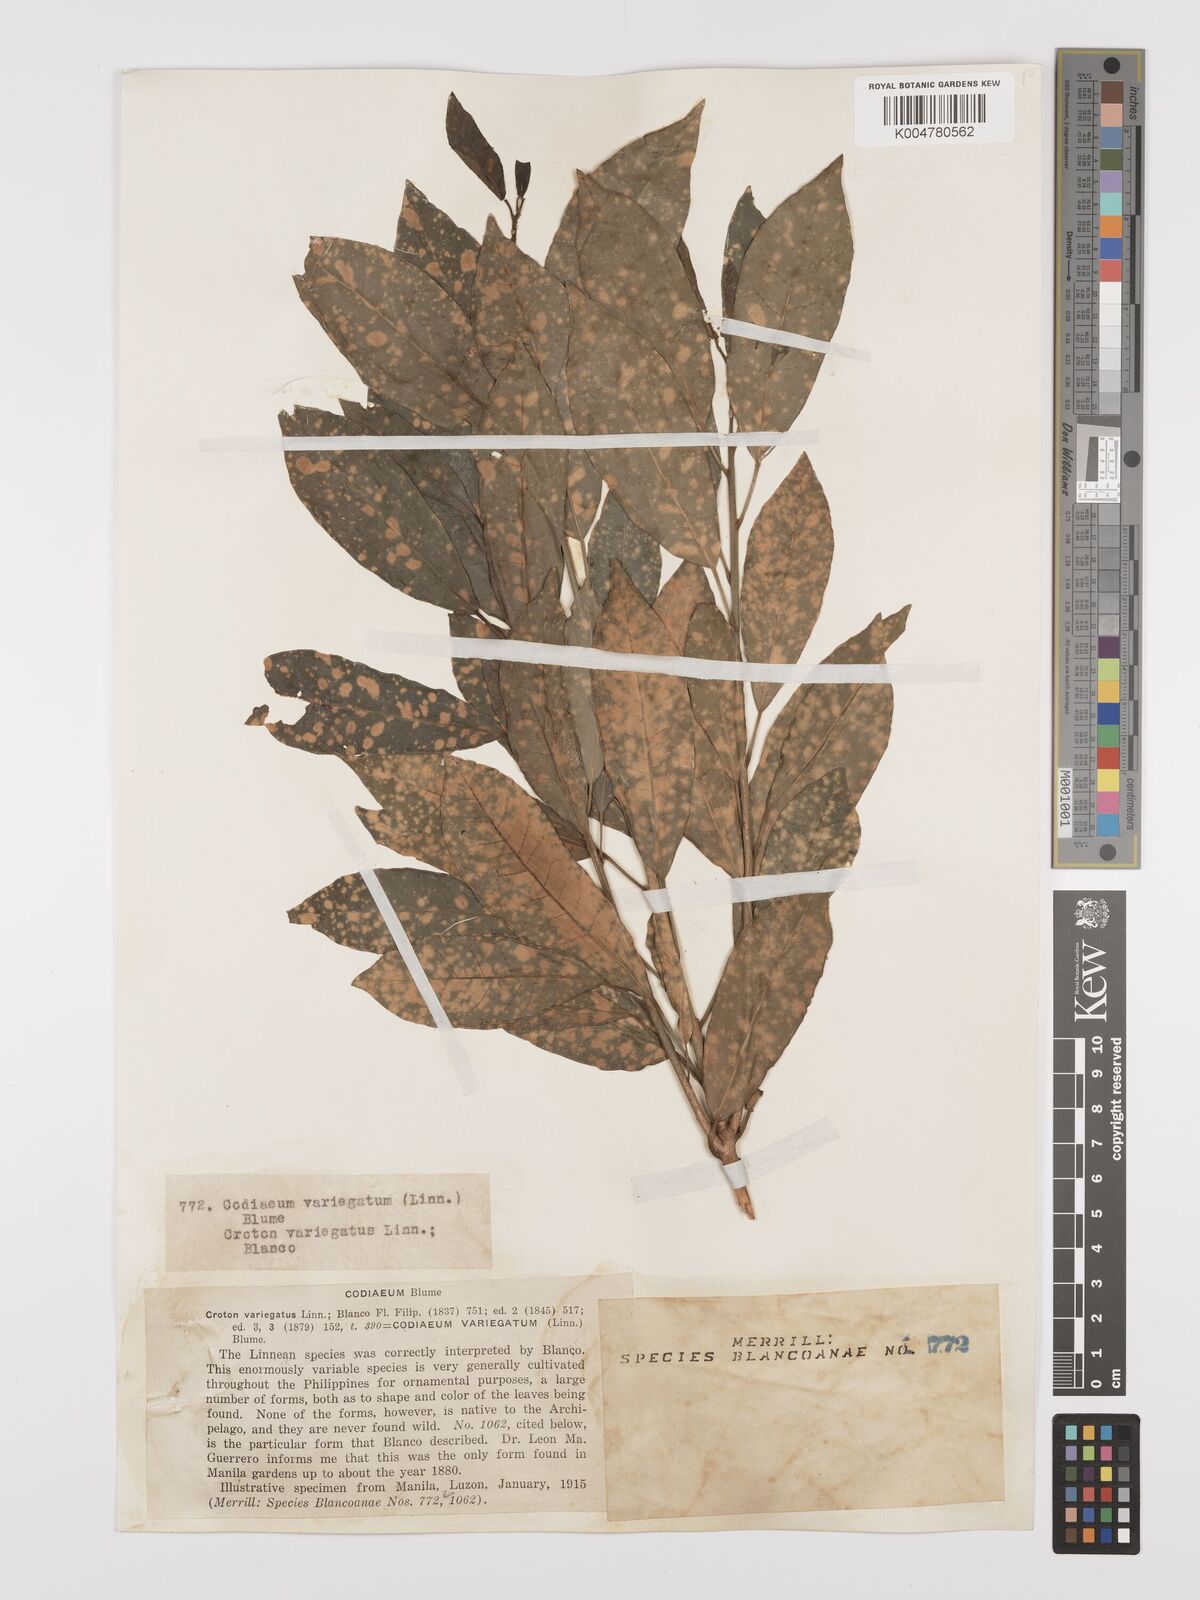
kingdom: Plantae
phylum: Tracheophyta
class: Magnoliopsida
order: Malpighiales
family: Euphorbiaceae
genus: Codiaeum
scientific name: Codiaeum variegatum
